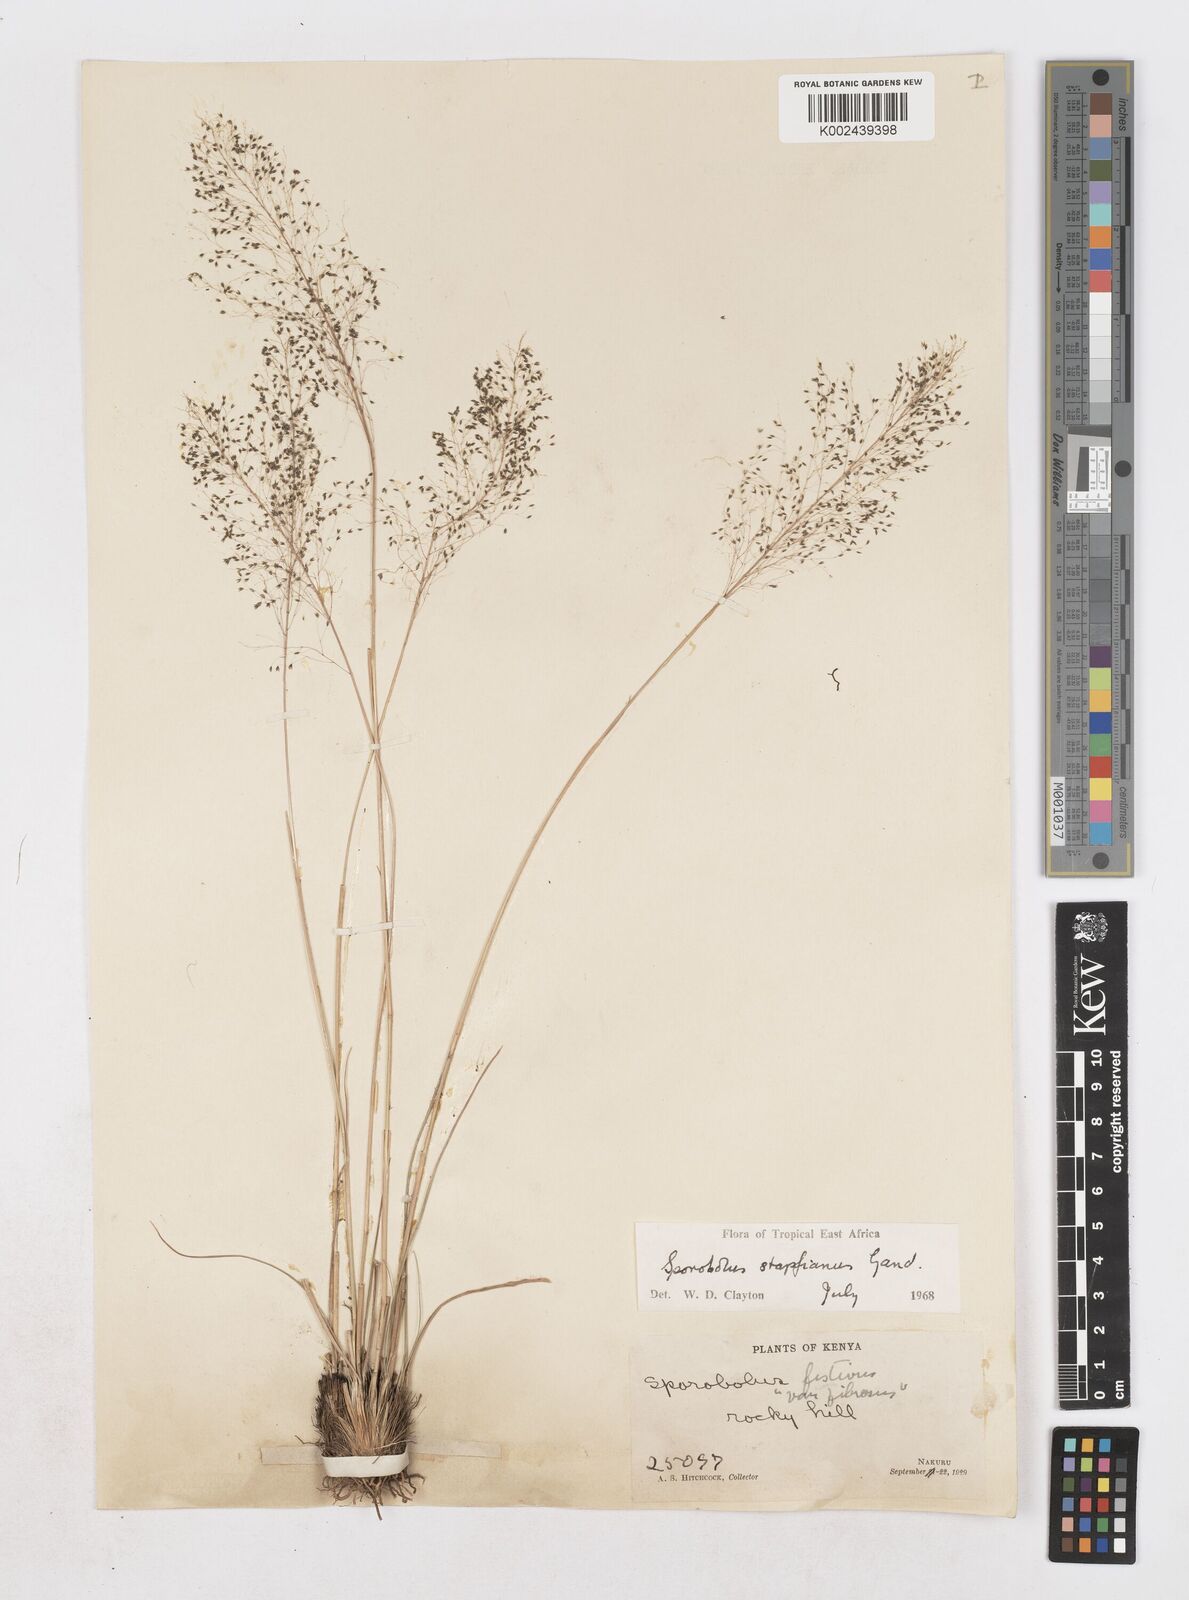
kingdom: Plantae
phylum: Tracheophyta
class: Liliopsida
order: Poales
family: Poaceae
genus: Sporobolus
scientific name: Sporobolus stapfianus
